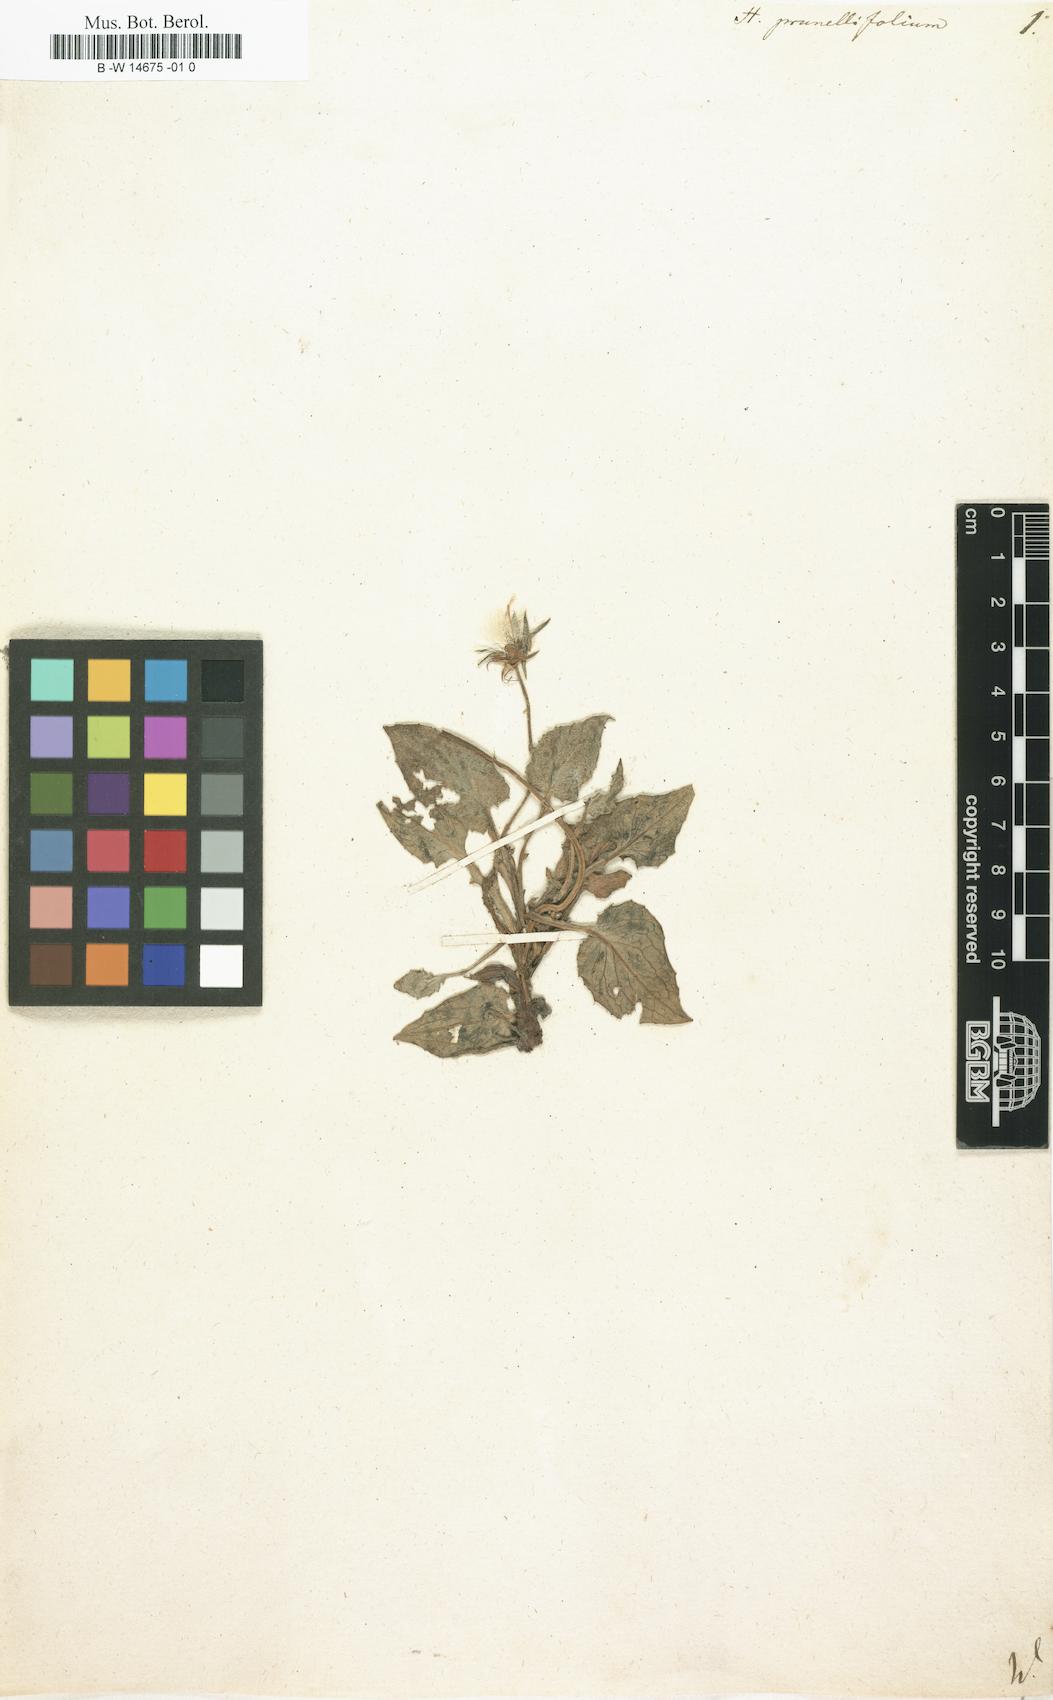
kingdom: Plantae
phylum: Tracheophyta
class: Magnoliopsida
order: Asterales
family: Asteraceae
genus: Crepis
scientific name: Crepis pygmaea
